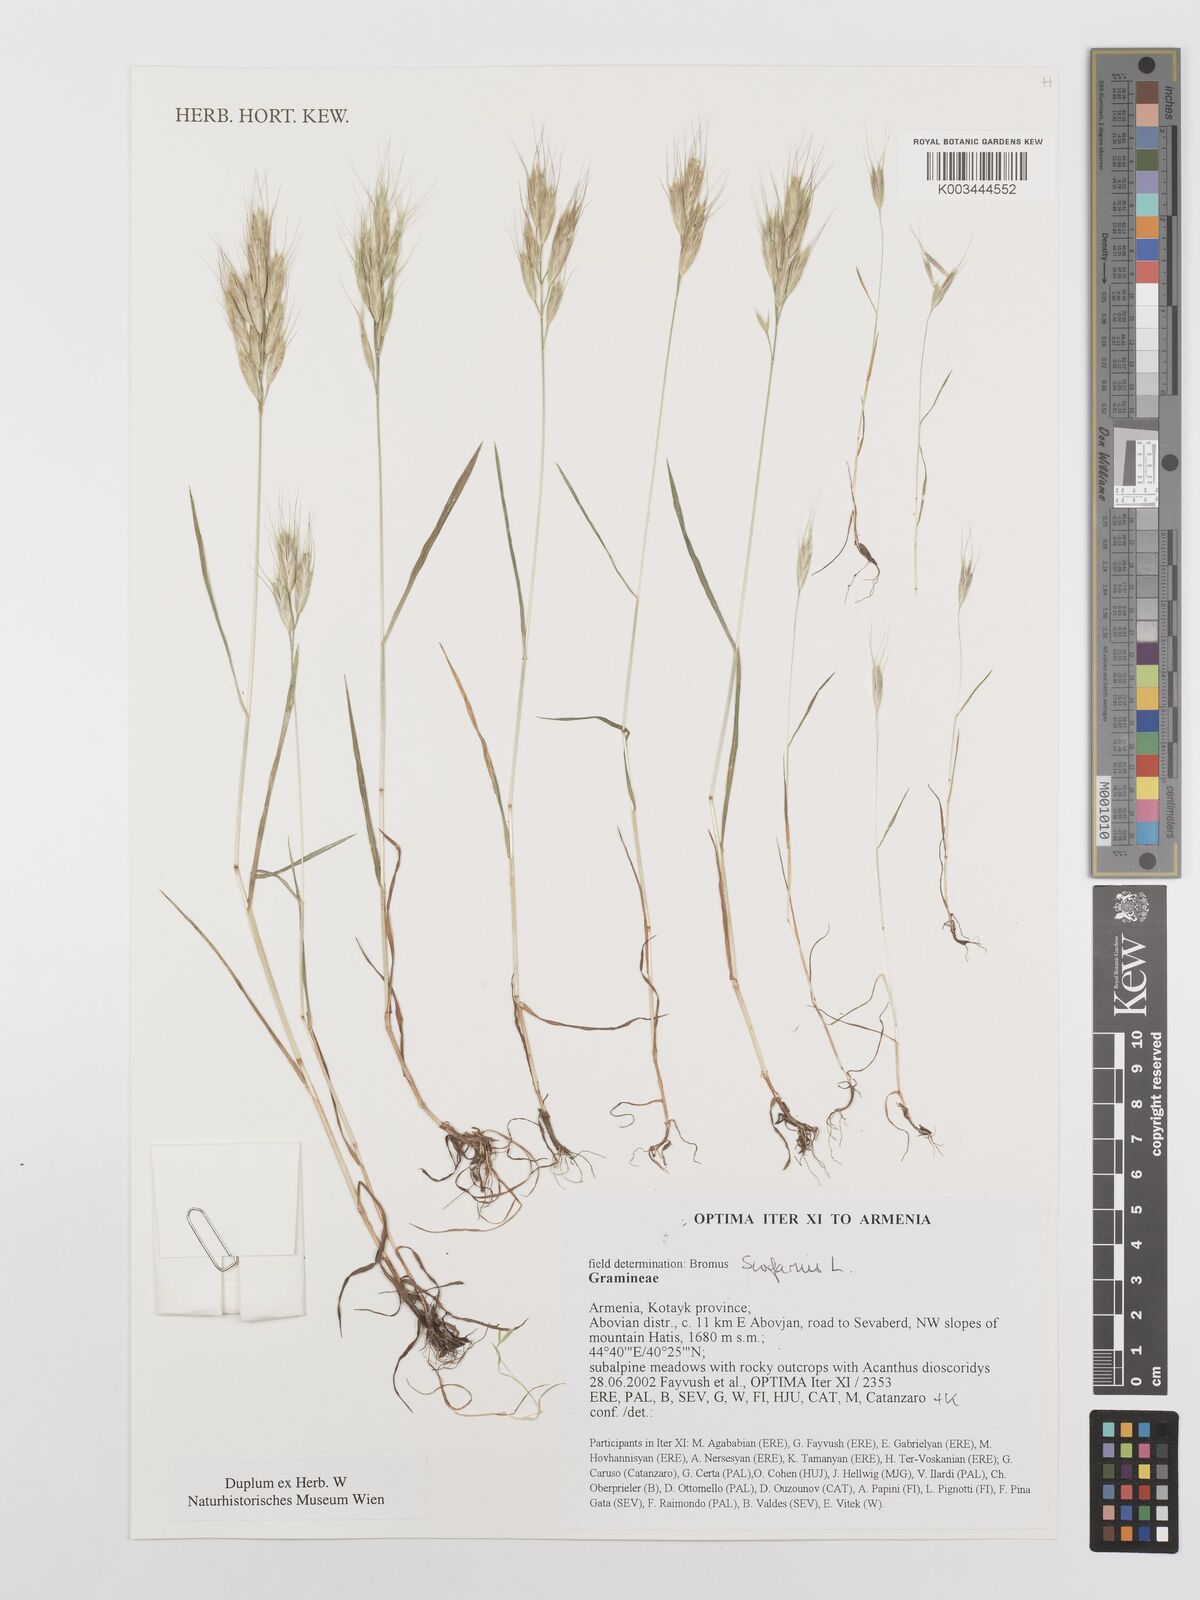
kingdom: Plantae
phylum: Tracheophyta
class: Liliopsida
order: Poales
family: Poaceae
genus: Bromus
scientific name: Bromus scoparius
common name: Broom brome
